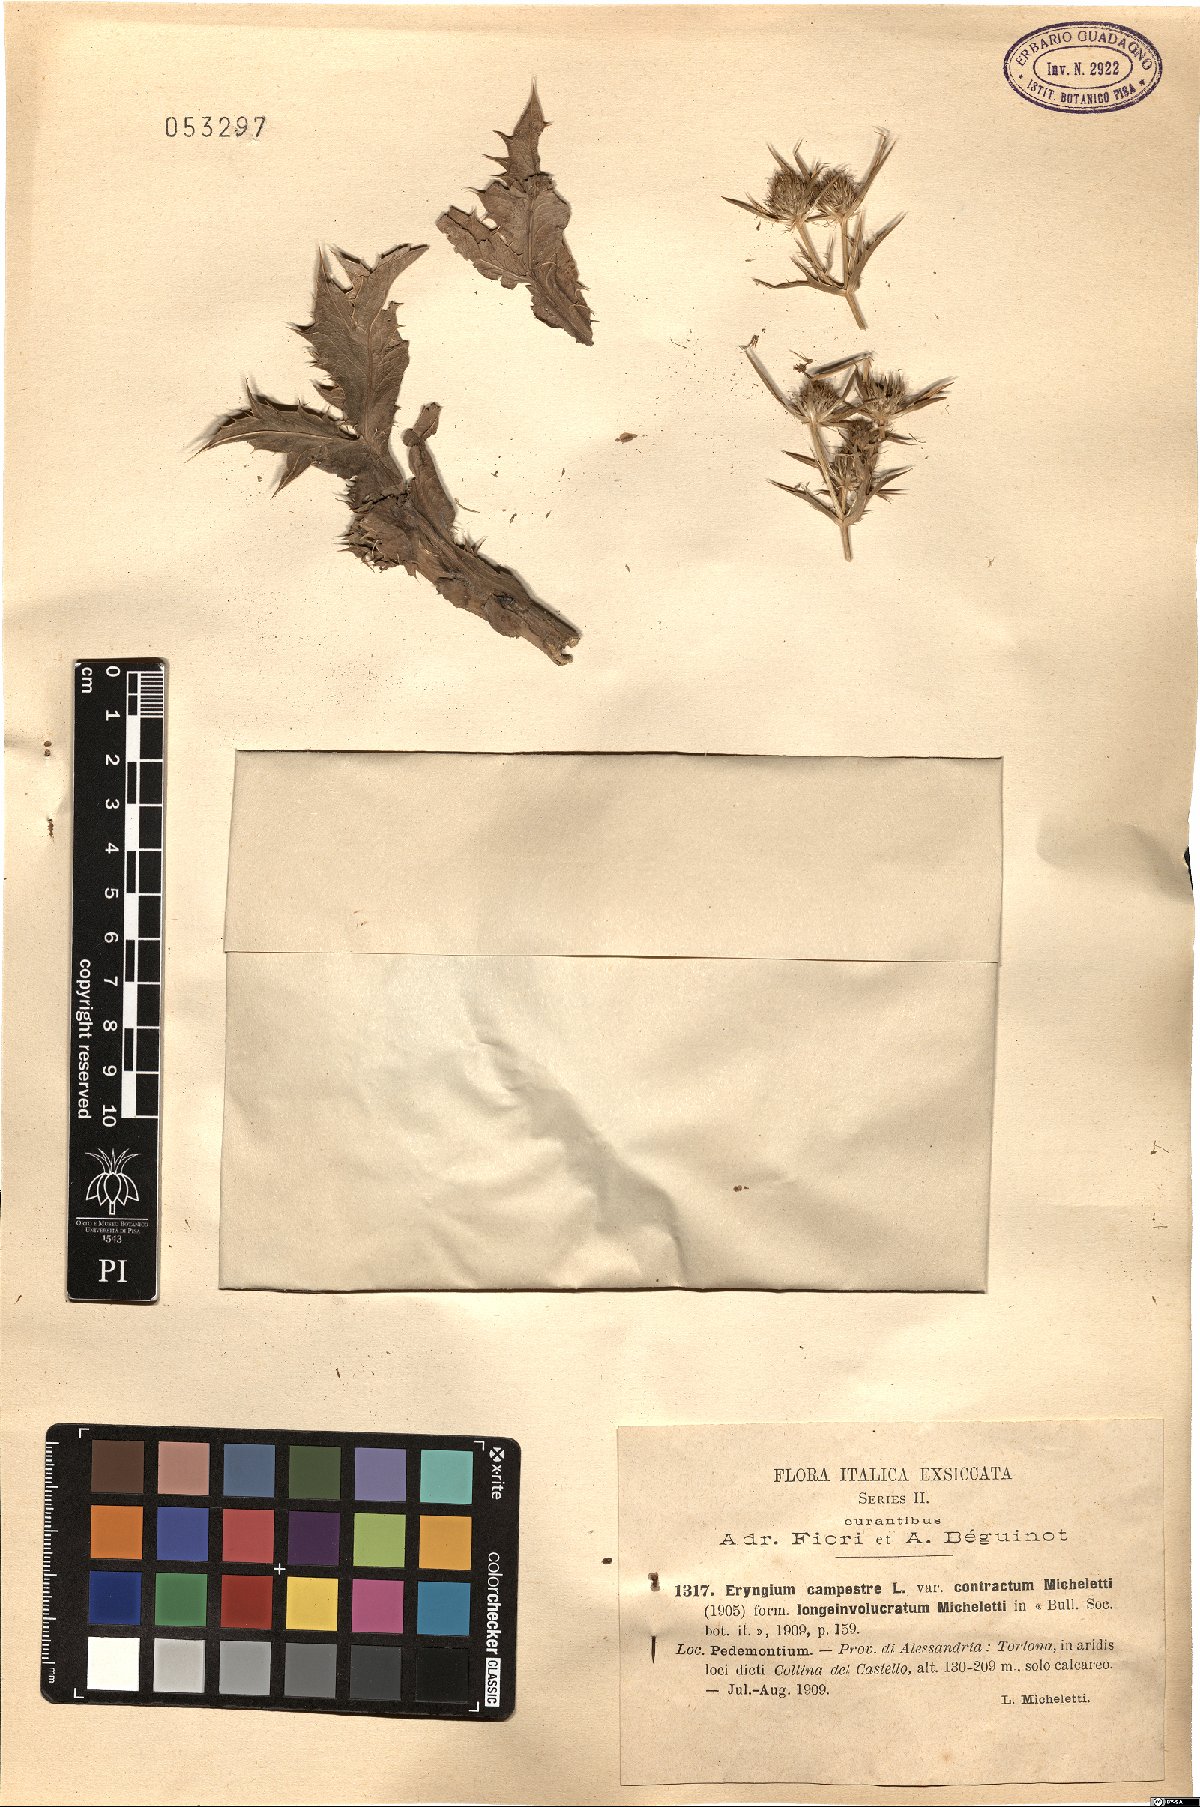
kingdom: Plantae
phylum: Tracheophyta
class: Magnoliopsida
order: Apiales
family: Apiaceae
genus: Eryngium
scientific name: Eryngium campestre
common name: Field eryngo
